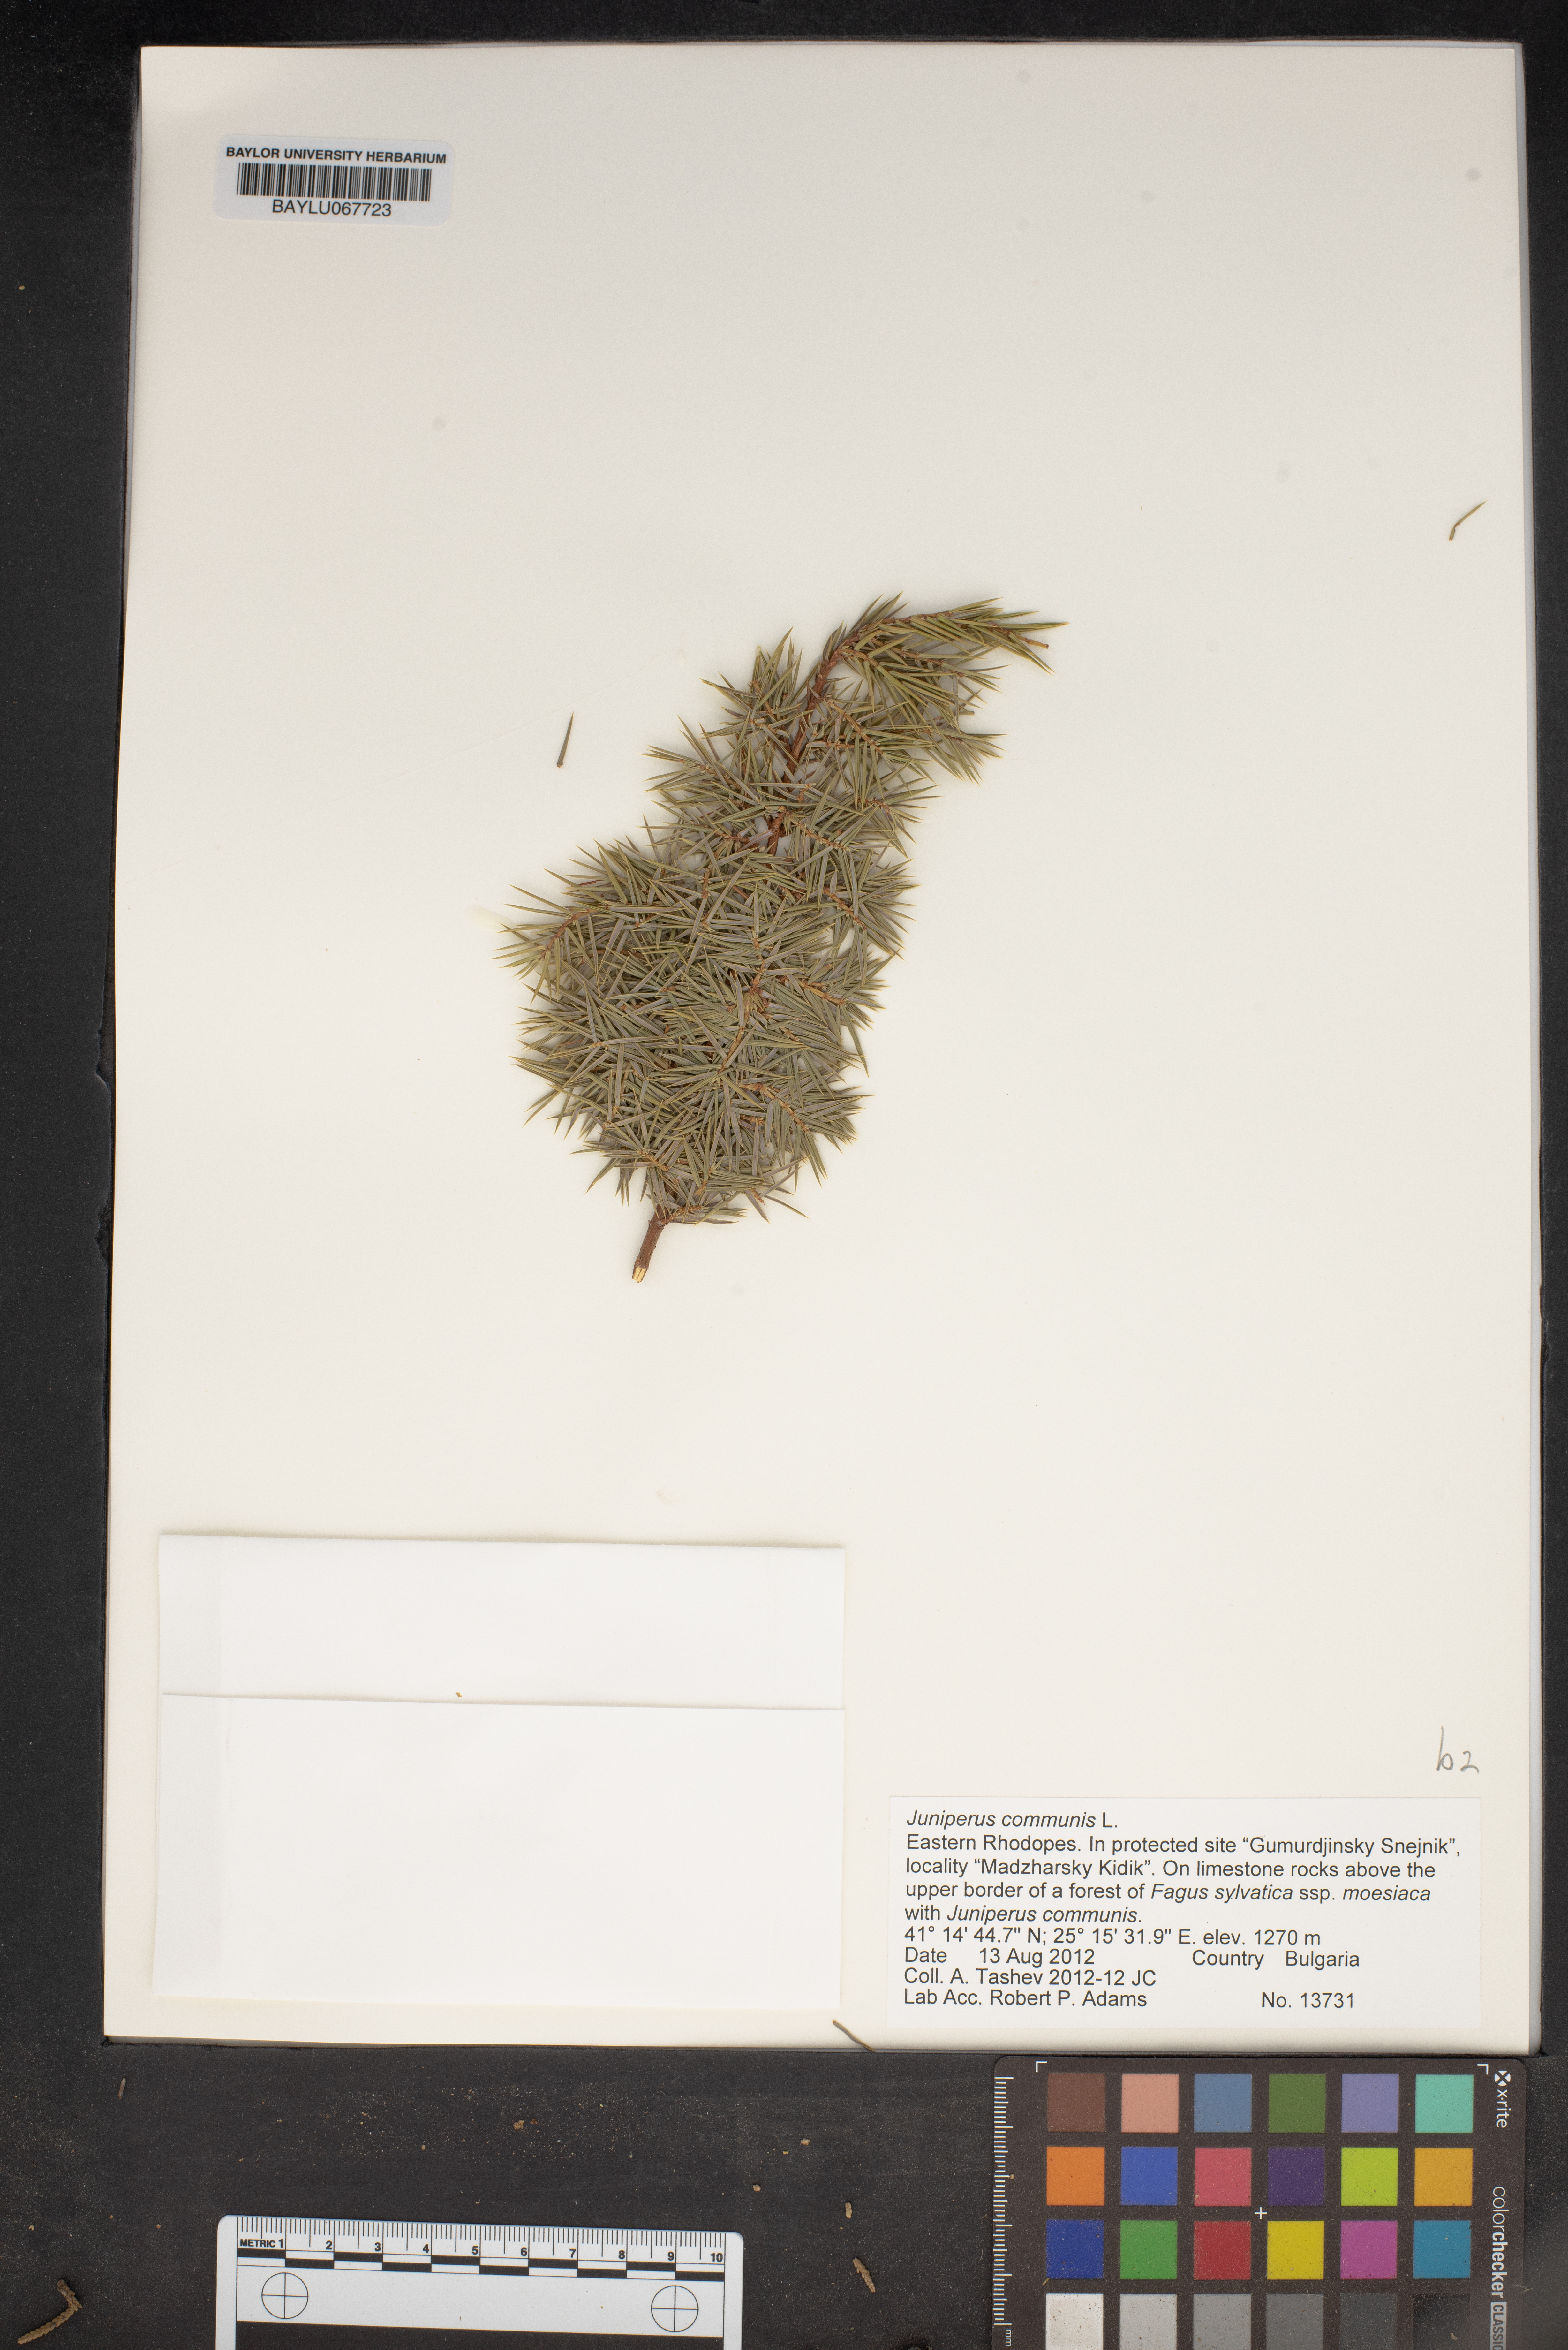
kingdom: Plantae
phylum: Tracheophyta
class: Pinopsida
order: Pinales
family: Cupressaceae
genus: Juniperus
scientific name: Juniperus communis
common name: Common juniper
